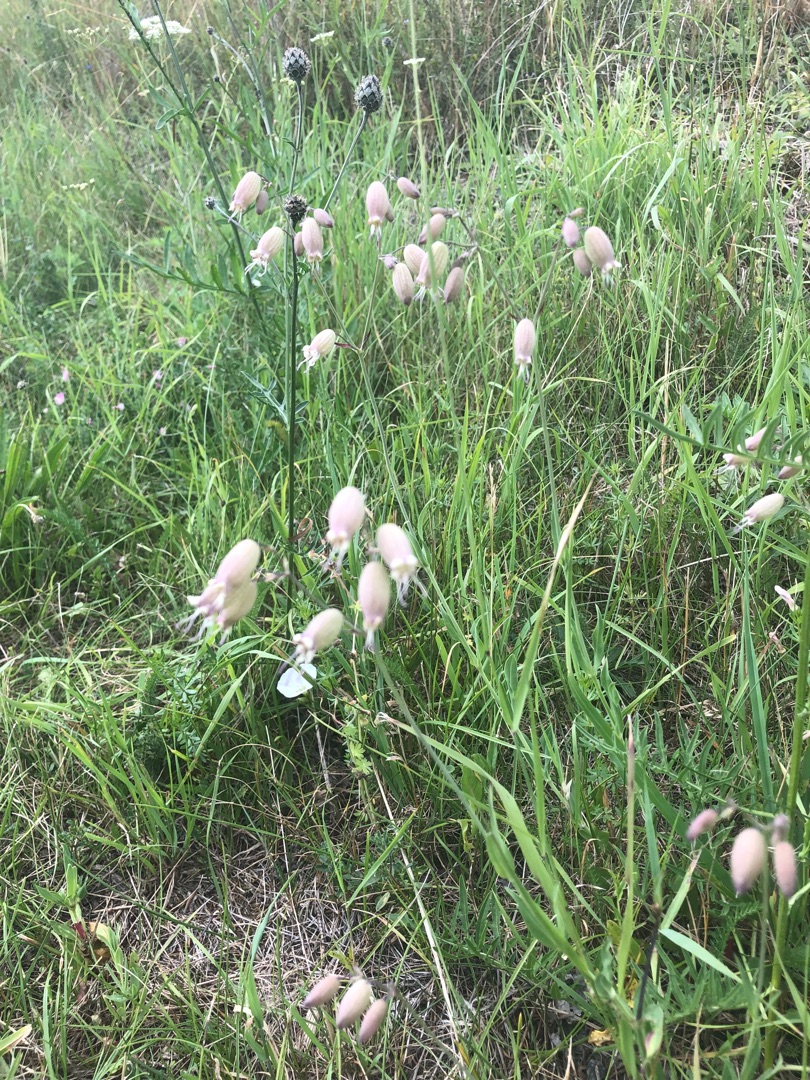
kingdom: Plantae
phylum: Tracheophyta
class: Magnoliopsida
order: Caryophyllales
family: Caryophyllaceae
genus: Silene
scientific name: Silene vulgaris
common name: Blæresmælde
